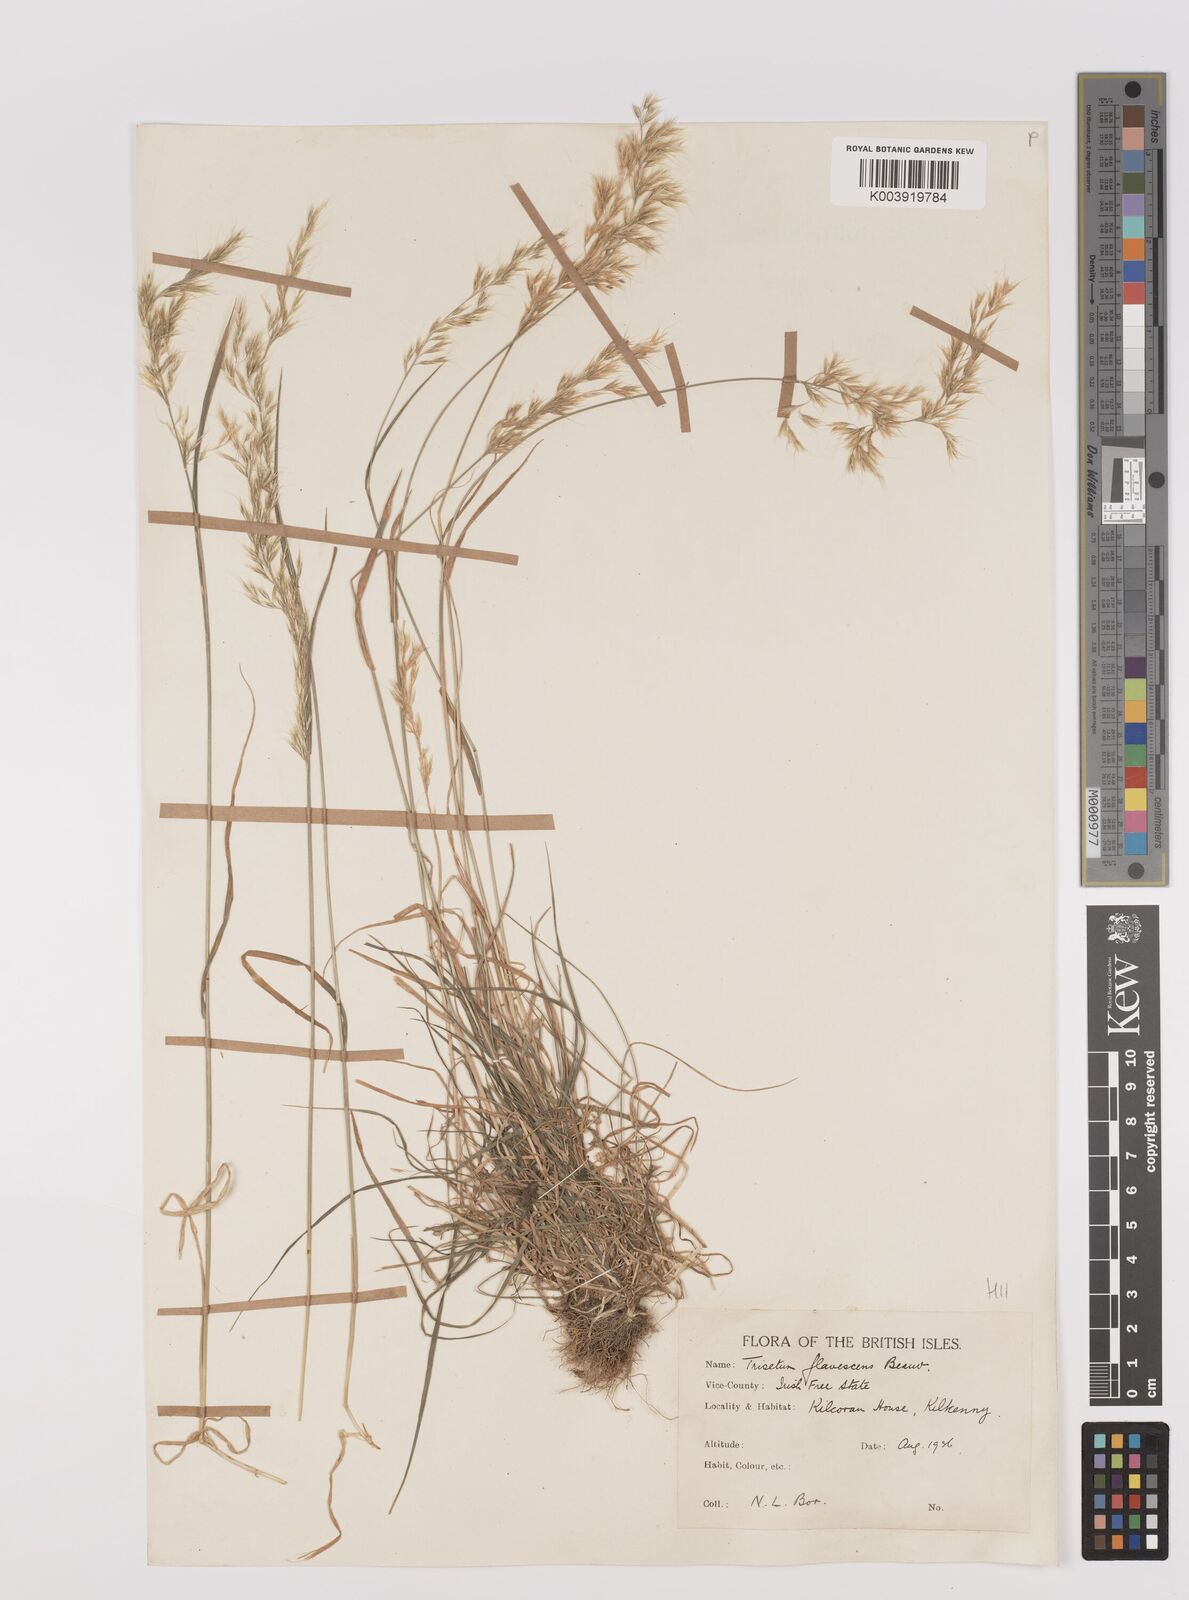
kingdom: Plantae
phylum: Tracheophyta
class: Liliopsida
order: Poales
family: Poaceae
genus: Trisetum
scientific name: Trisetum flavescens
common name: Yellow oat-grass
